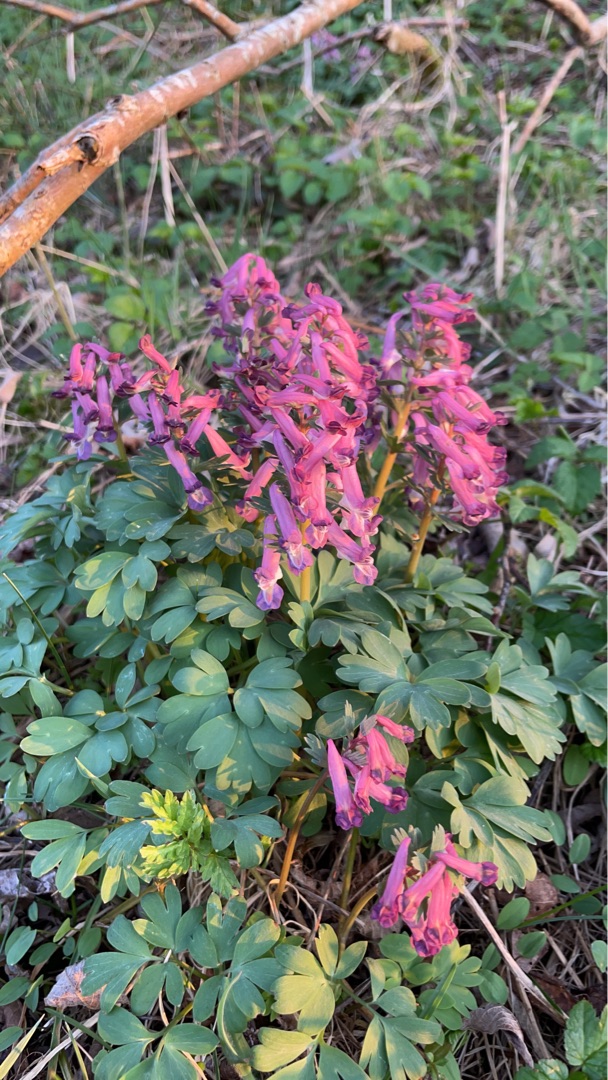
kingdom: Plantae
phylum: Tracheophyta
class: Magnoliopsida
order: Ranunculales
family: Papaveraceae
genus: Corydalis
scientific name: Corydalis solida
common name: Langstilket lærkespore
